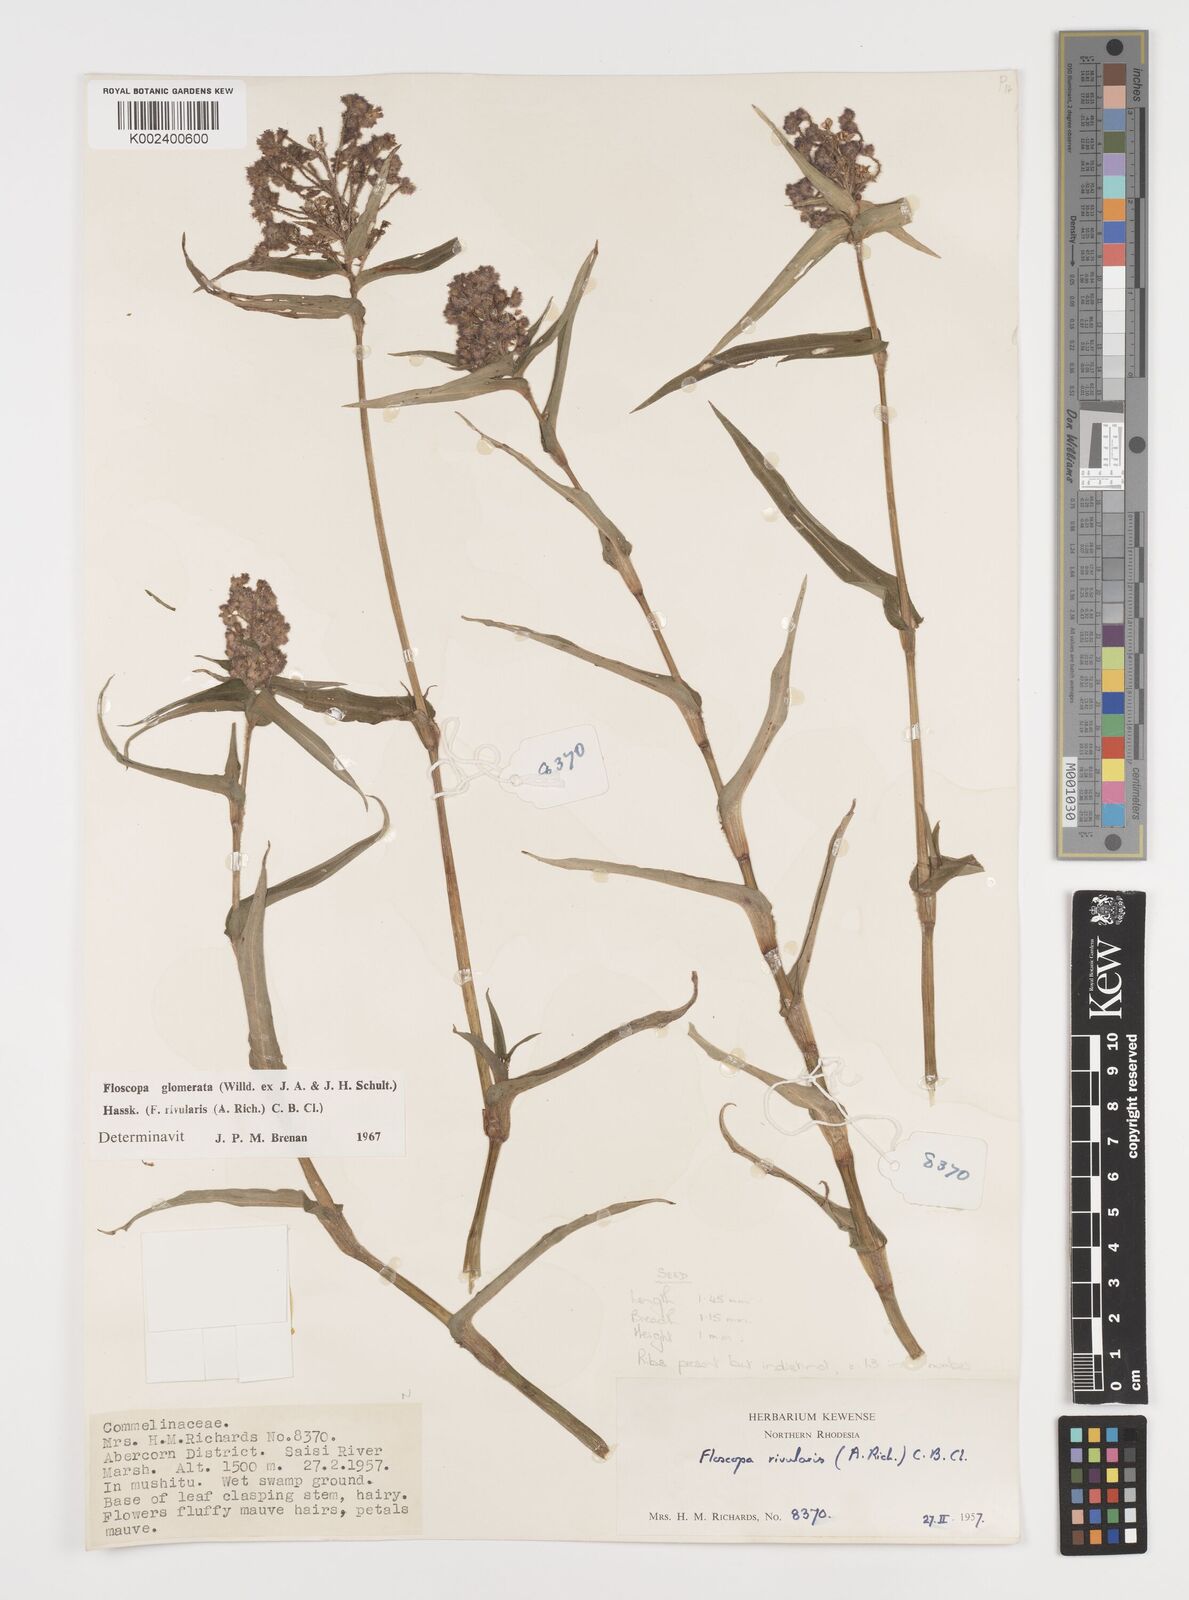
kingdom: Plantae
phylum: Tracheophyta
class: Liliopsida
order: Commelinales
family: Commelinaceae
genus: Floscopa
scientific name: Floscopa glomerata
